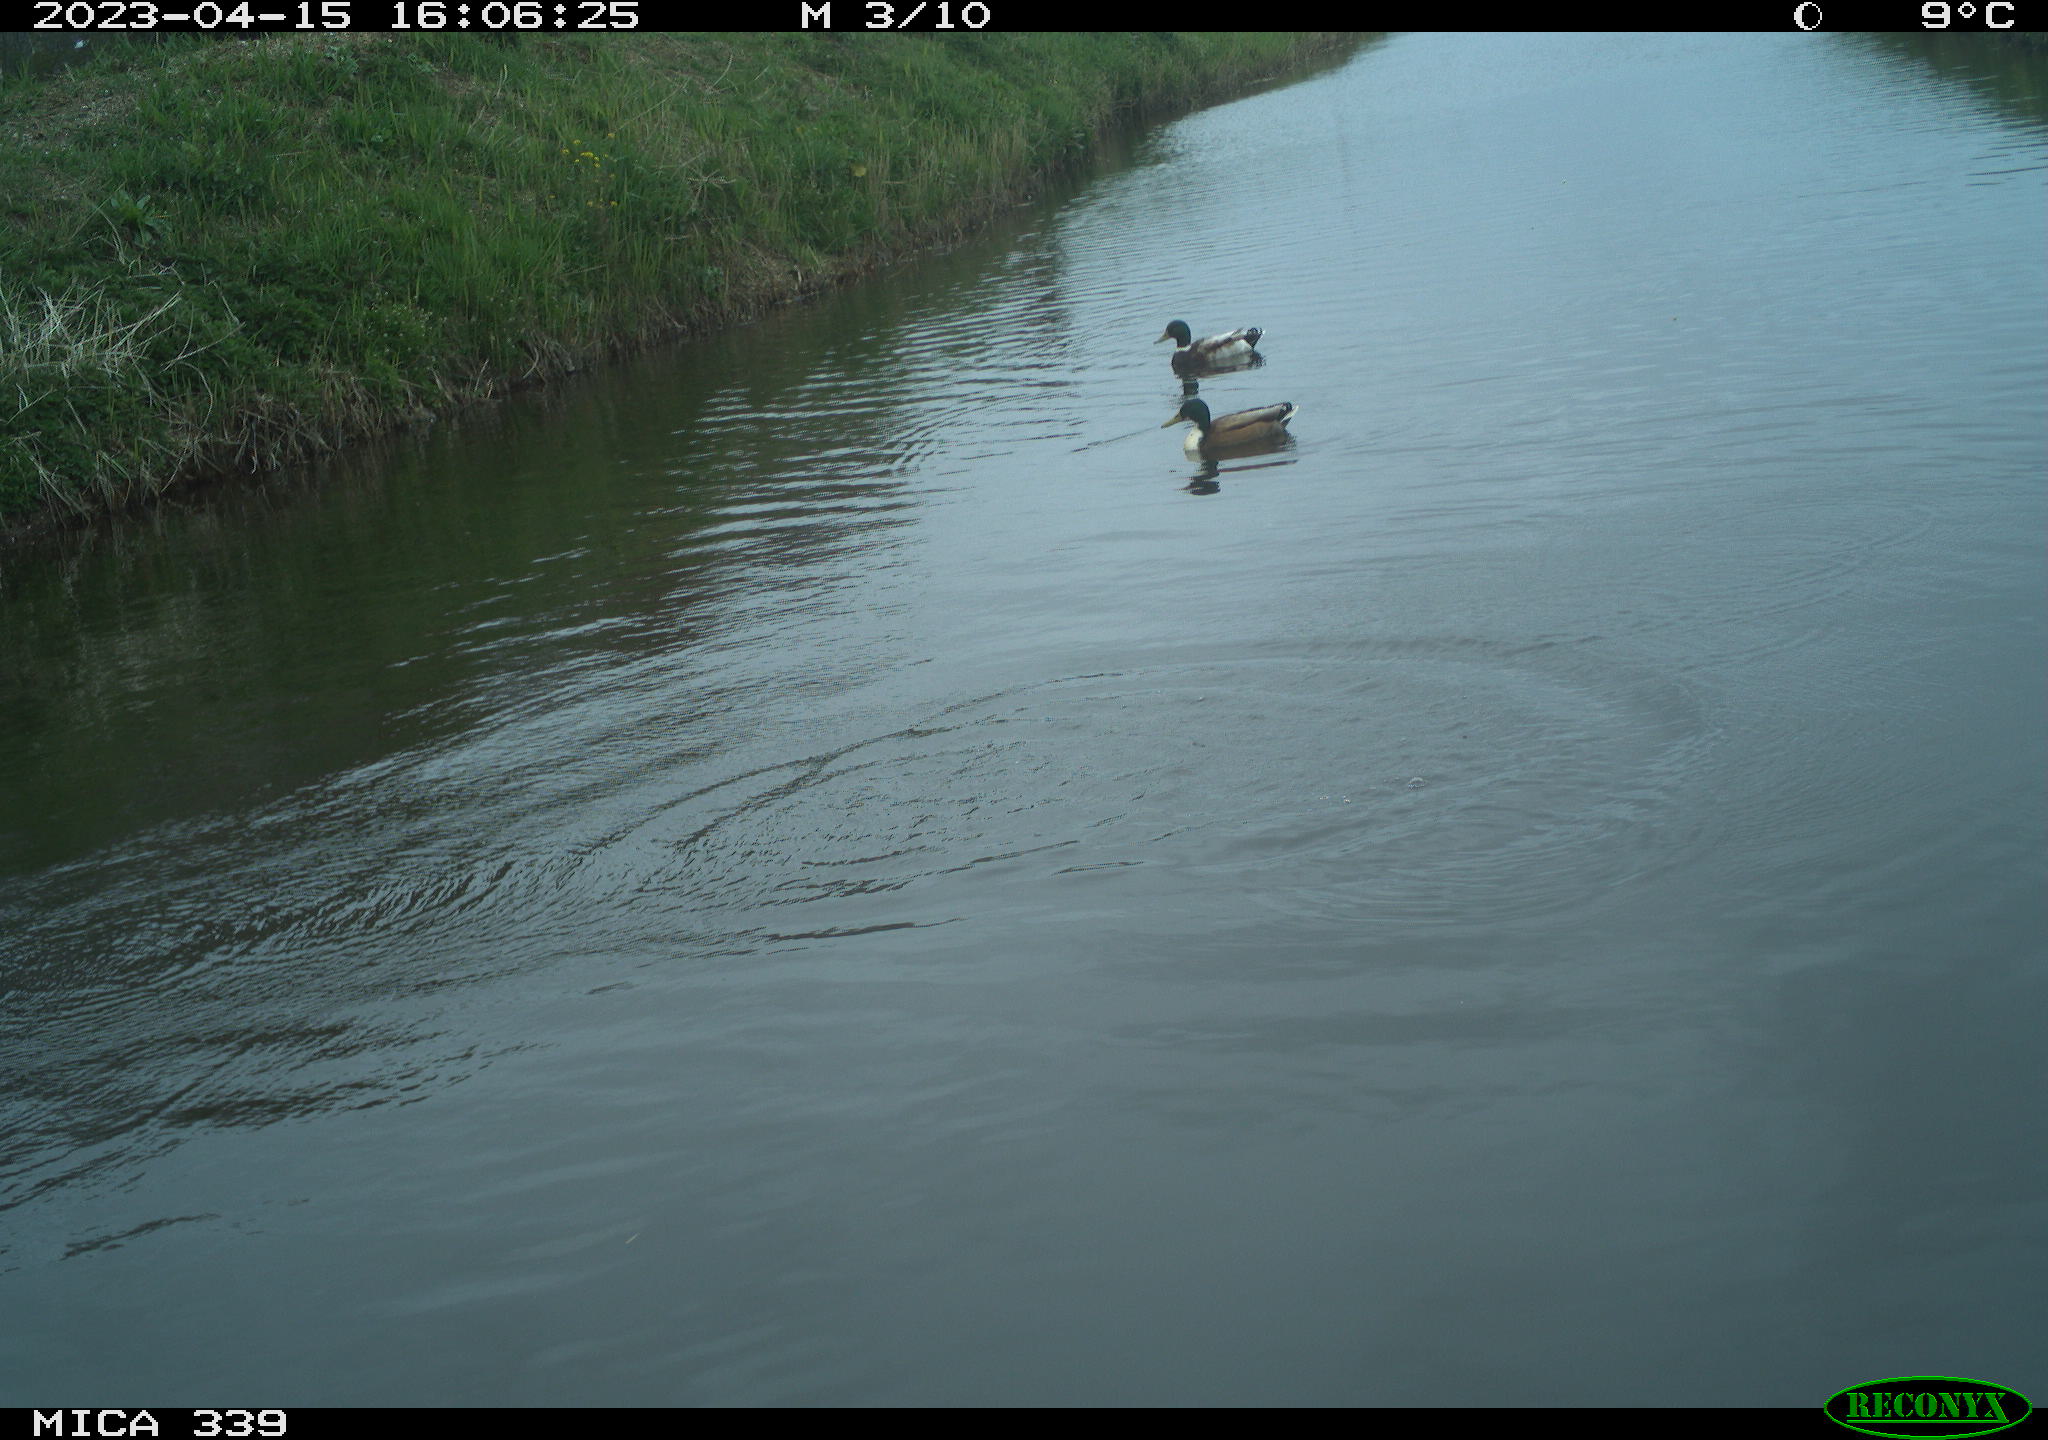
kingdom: Animalia
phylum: Chordata
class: Aves
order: Anseriformes
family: Anatidae
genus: Anas
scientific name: Anas
